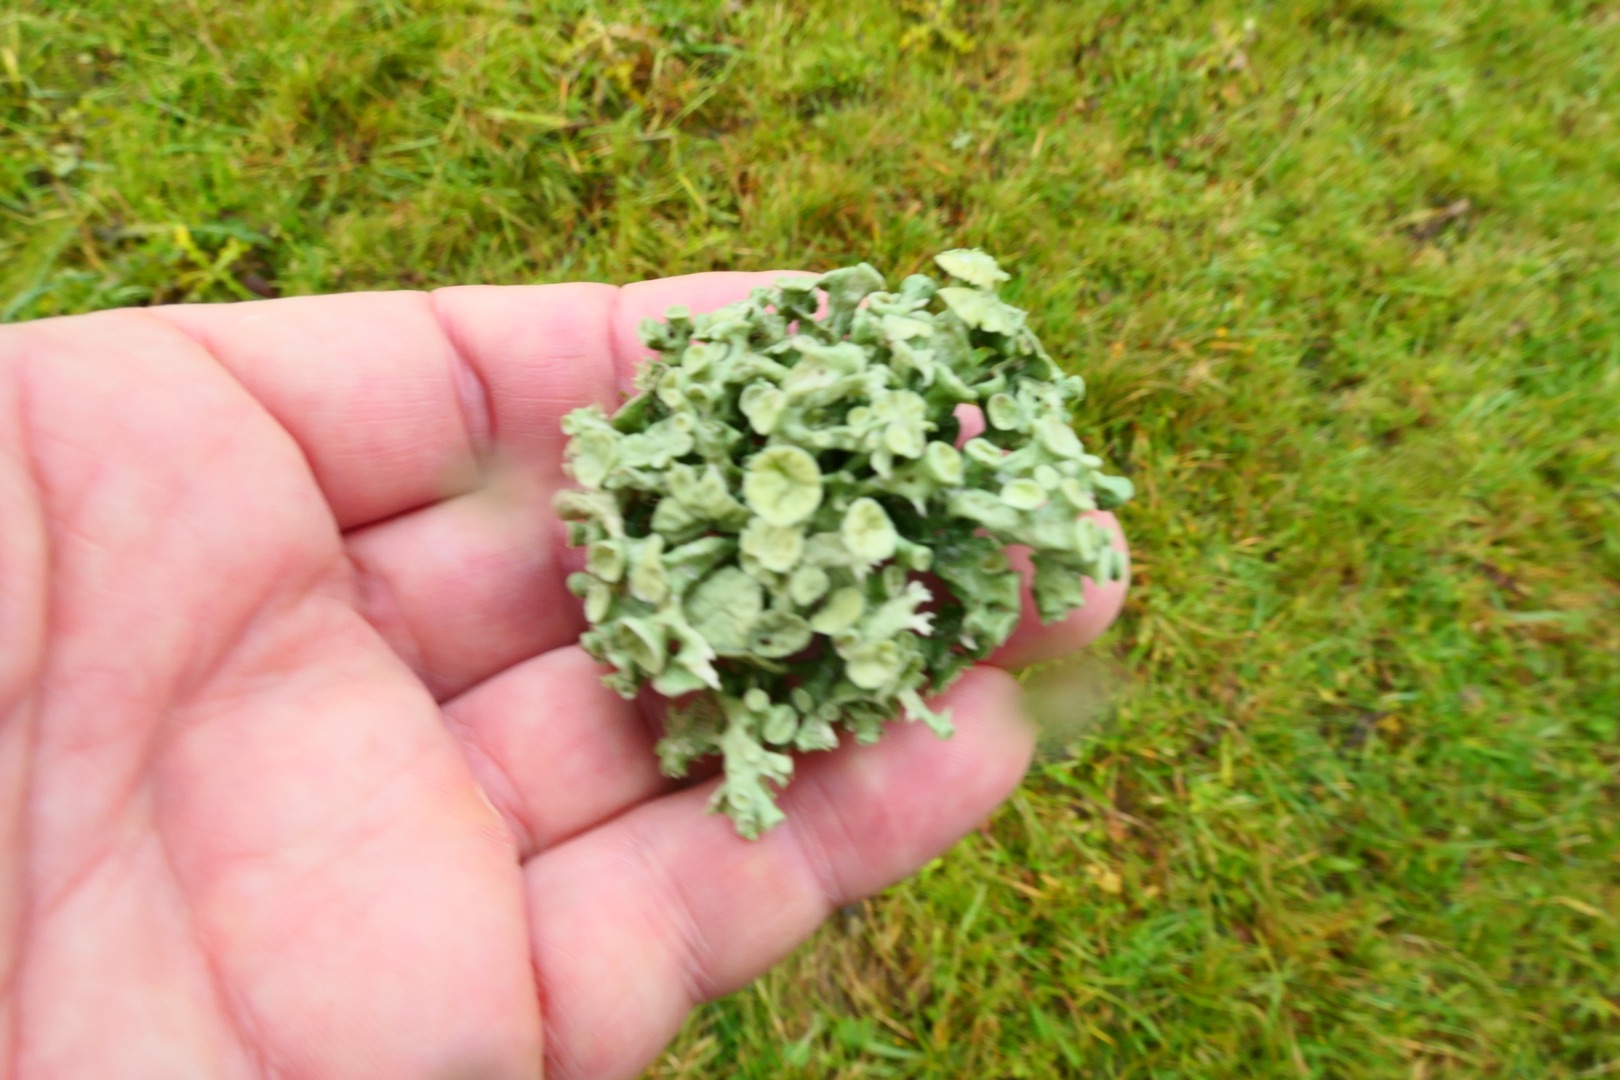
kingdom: Fungi
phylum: Ascomycota
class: Lecanoromycetes
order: Lecanorales
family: Ramalinaceae
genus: Ramalina
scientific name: Ramalina fastigiata
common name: Tue-grenlav
